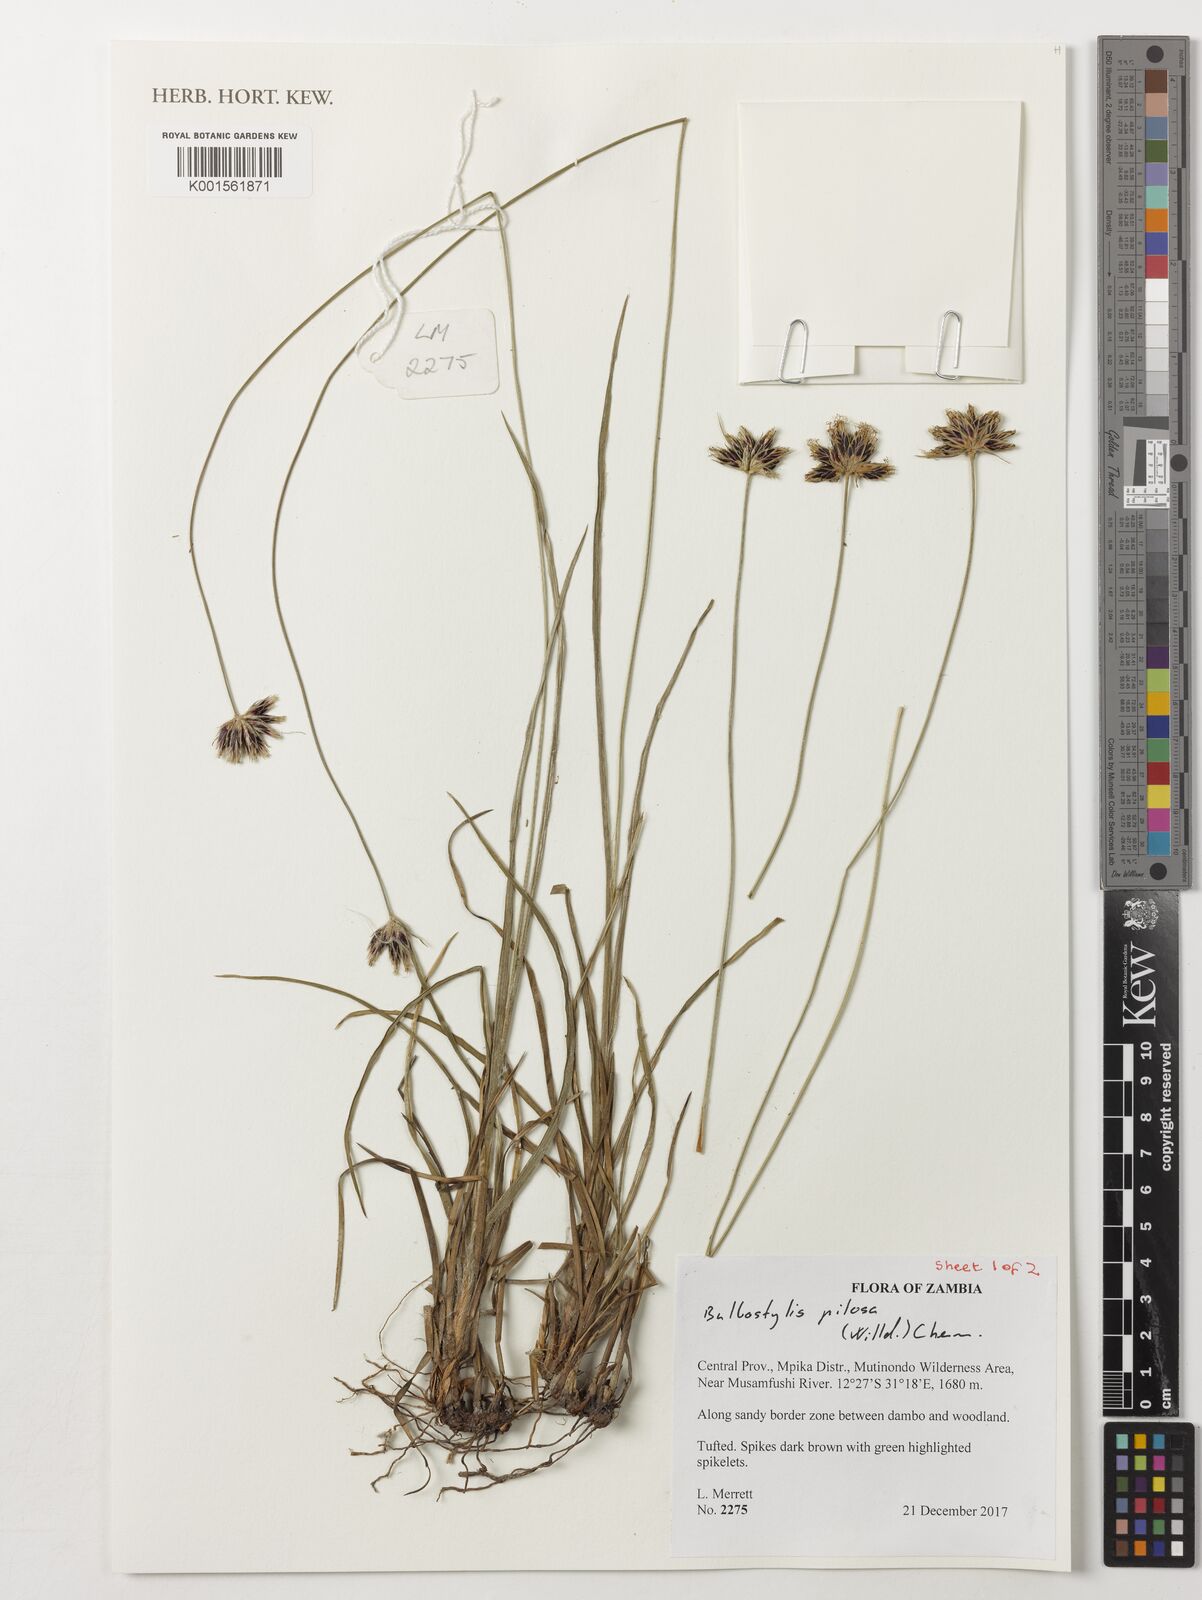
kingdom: Plantae
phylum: Tracheophyta
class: Liliopsida
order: Poales
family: Cyperaceae
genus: Bulbostylis
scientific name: Bulbostylis pilosa
